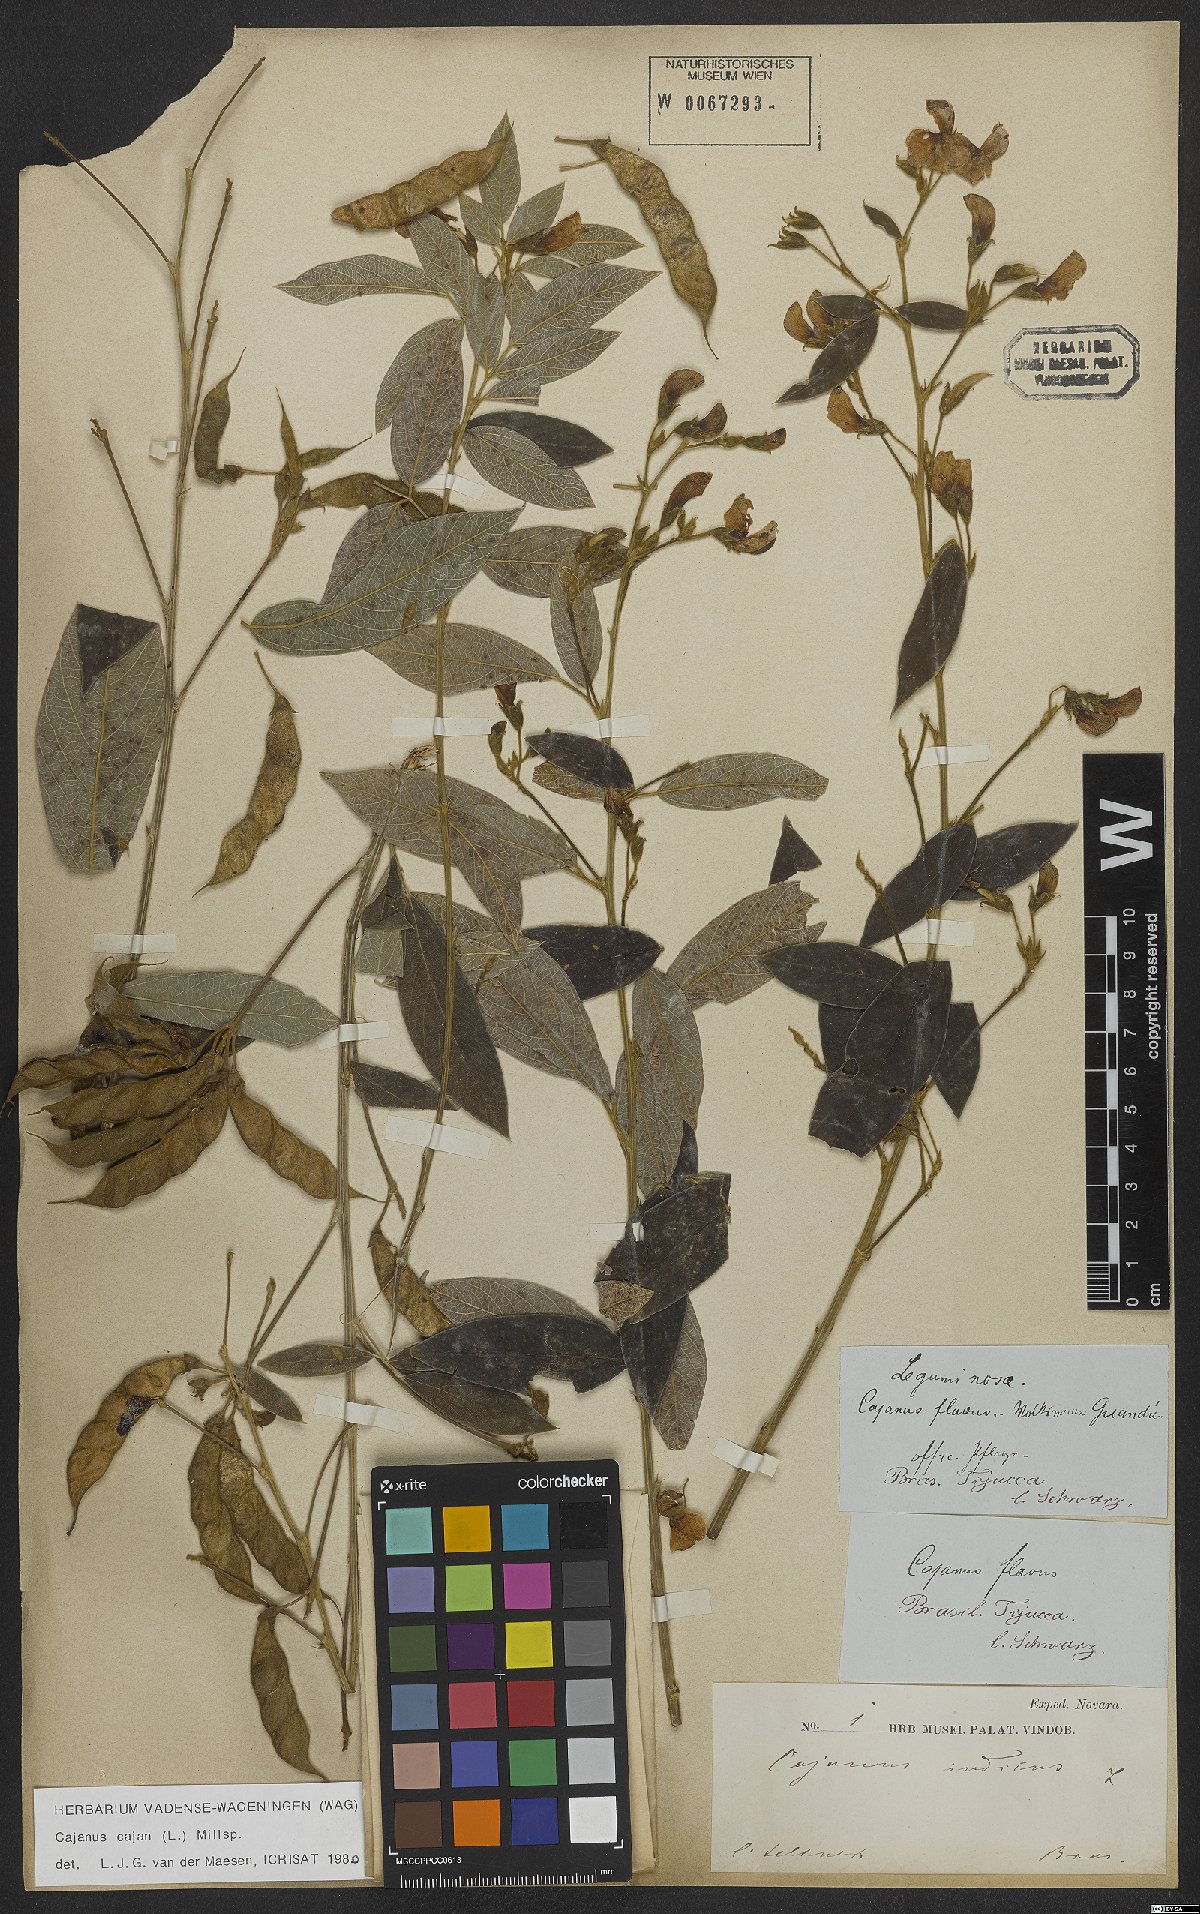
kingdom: Plantae
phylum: Tracheophyta
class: Magnoliopsida
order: Fabales
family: Fabaceae
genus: Cajanus
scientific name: Cajanus cajan
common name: Pigeonpea
